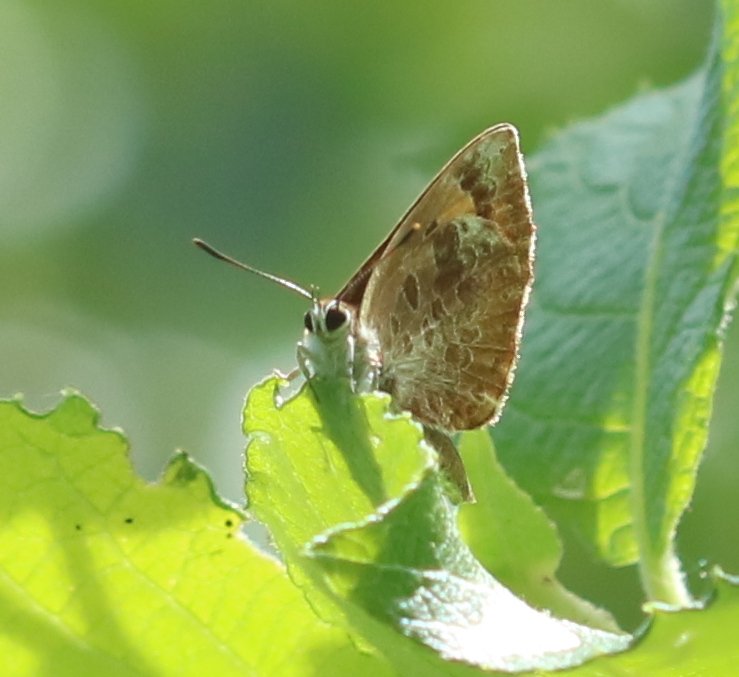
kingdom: Animalia
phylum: Arthropoda
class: Insecta
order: Lepidoptera
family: Lycaenidae
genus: Feniseca
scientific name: Feniseca tarquinius
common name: Harvester
